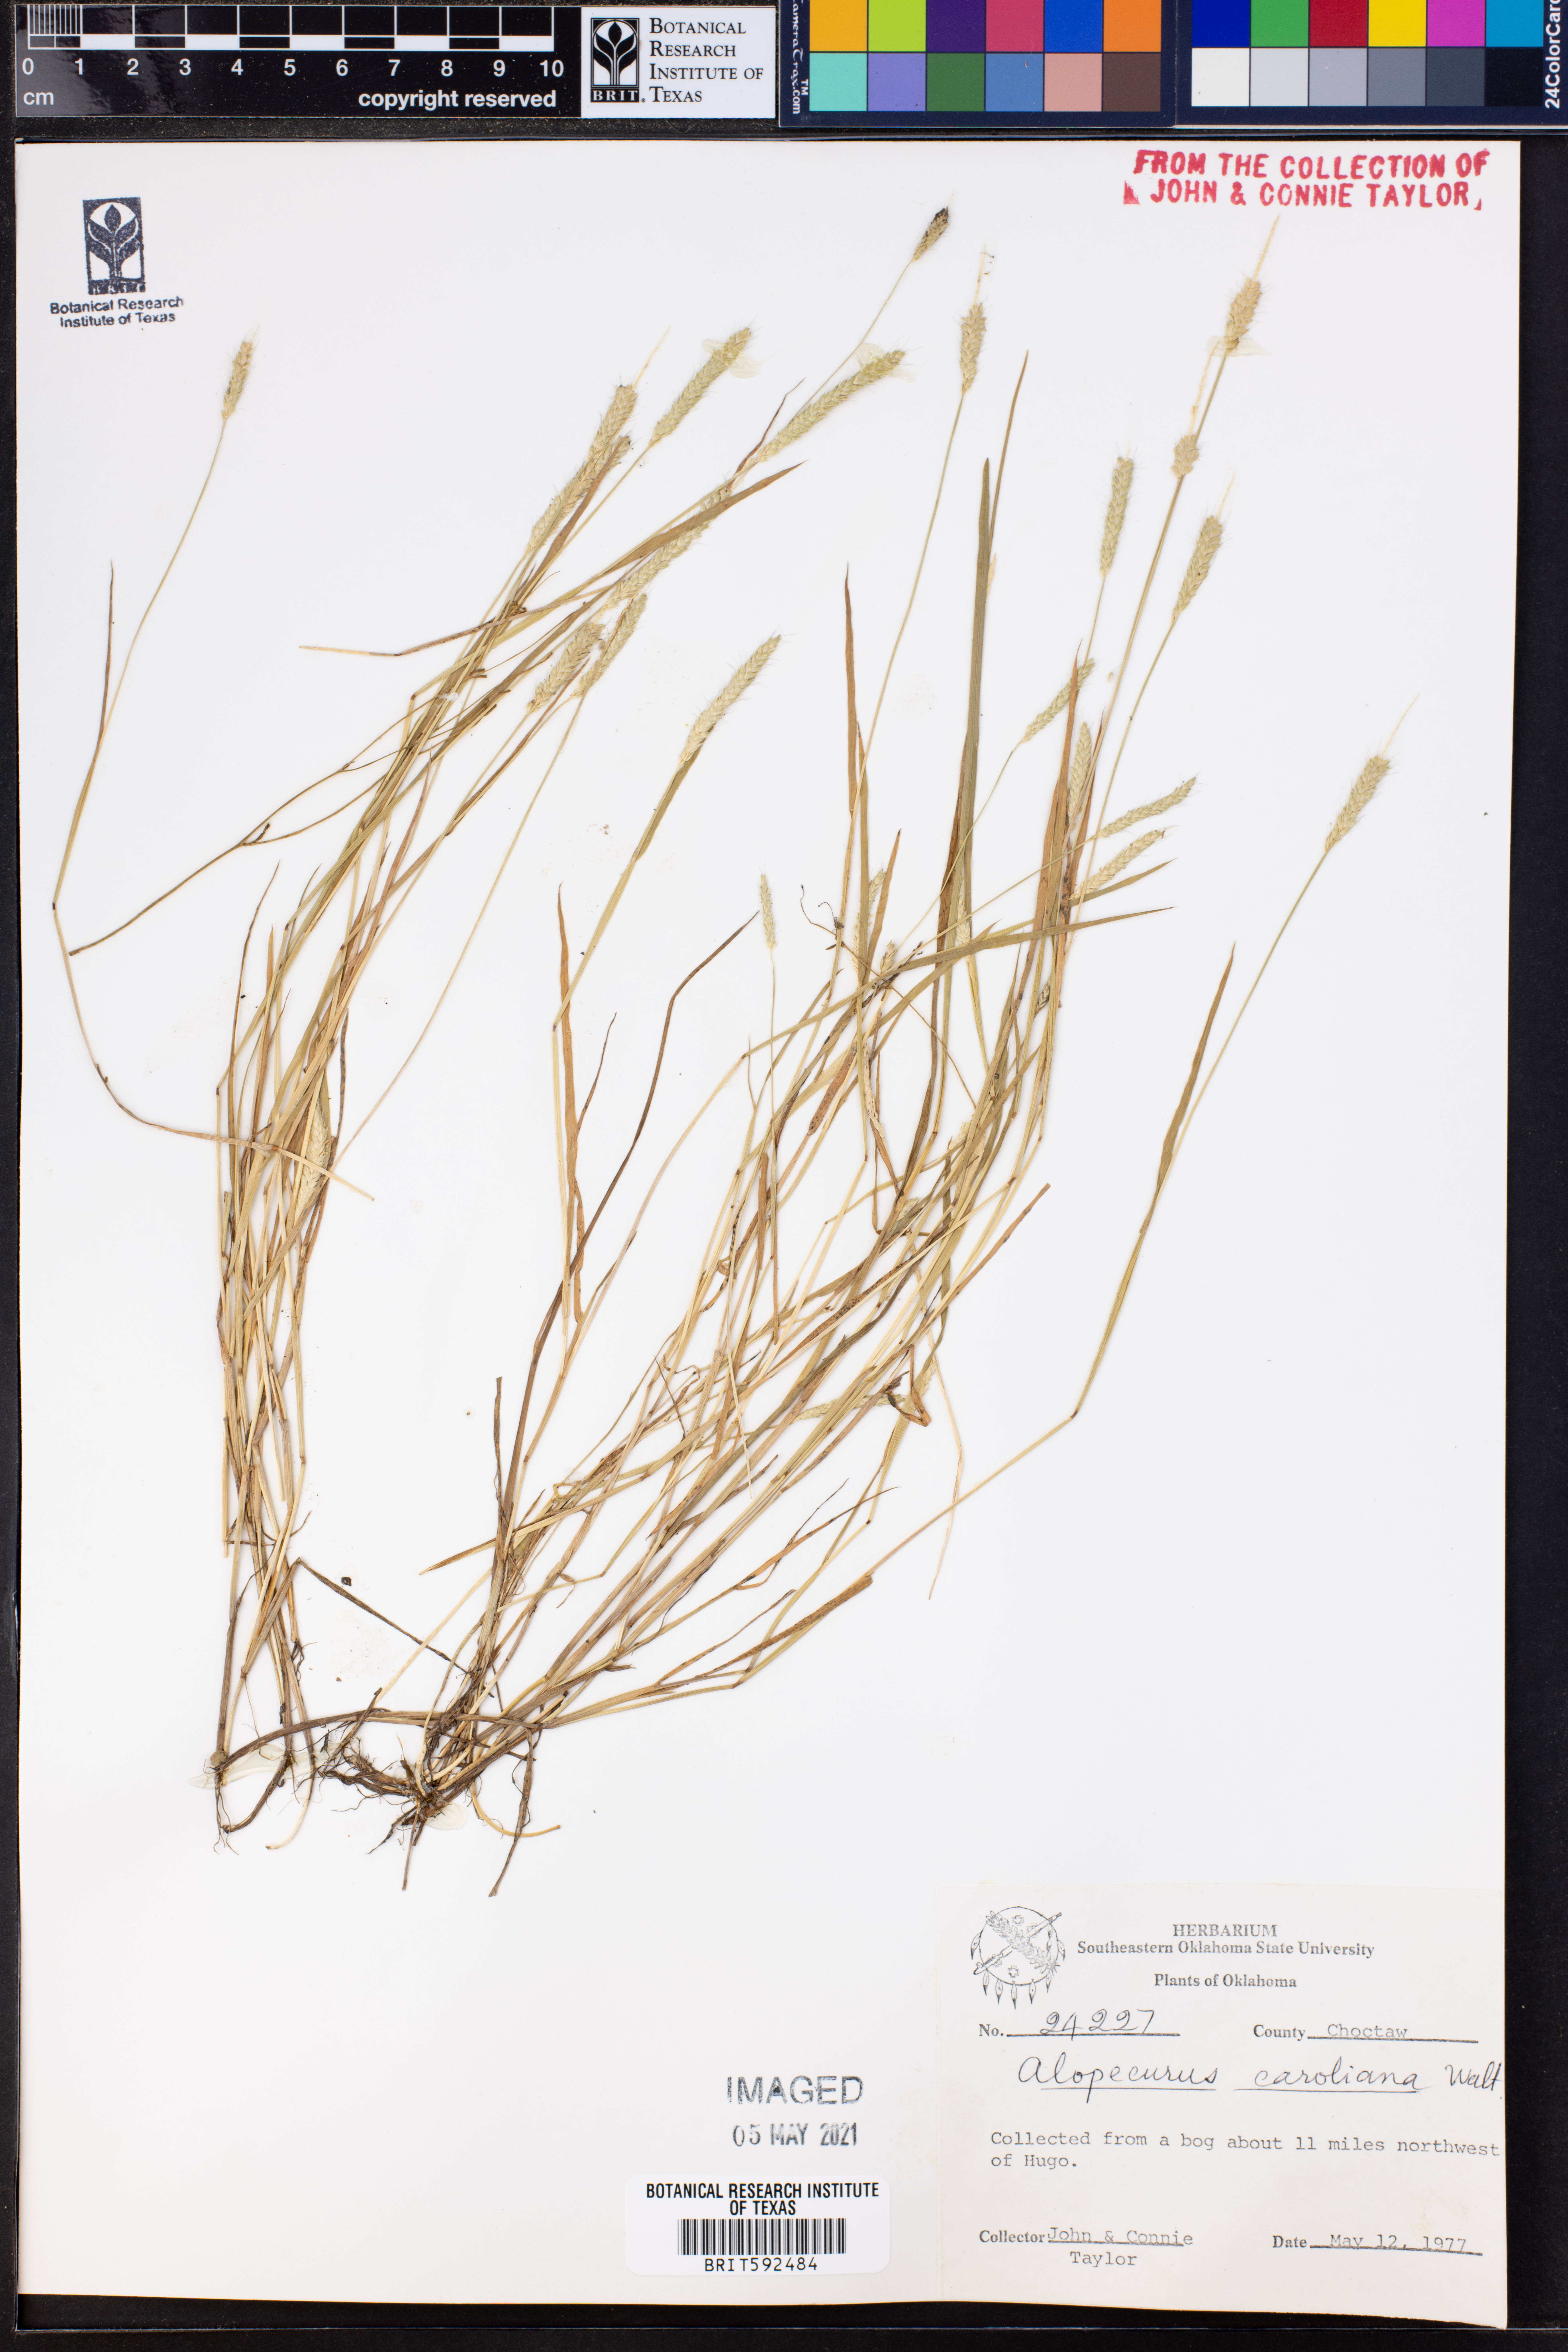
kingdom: Plantae
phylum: Tracheophyta
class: Liliopsida
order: Poales
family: Poaceae
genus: Alopecurus
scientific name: Alopecurus carolinianus
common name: Tufted foxtail
